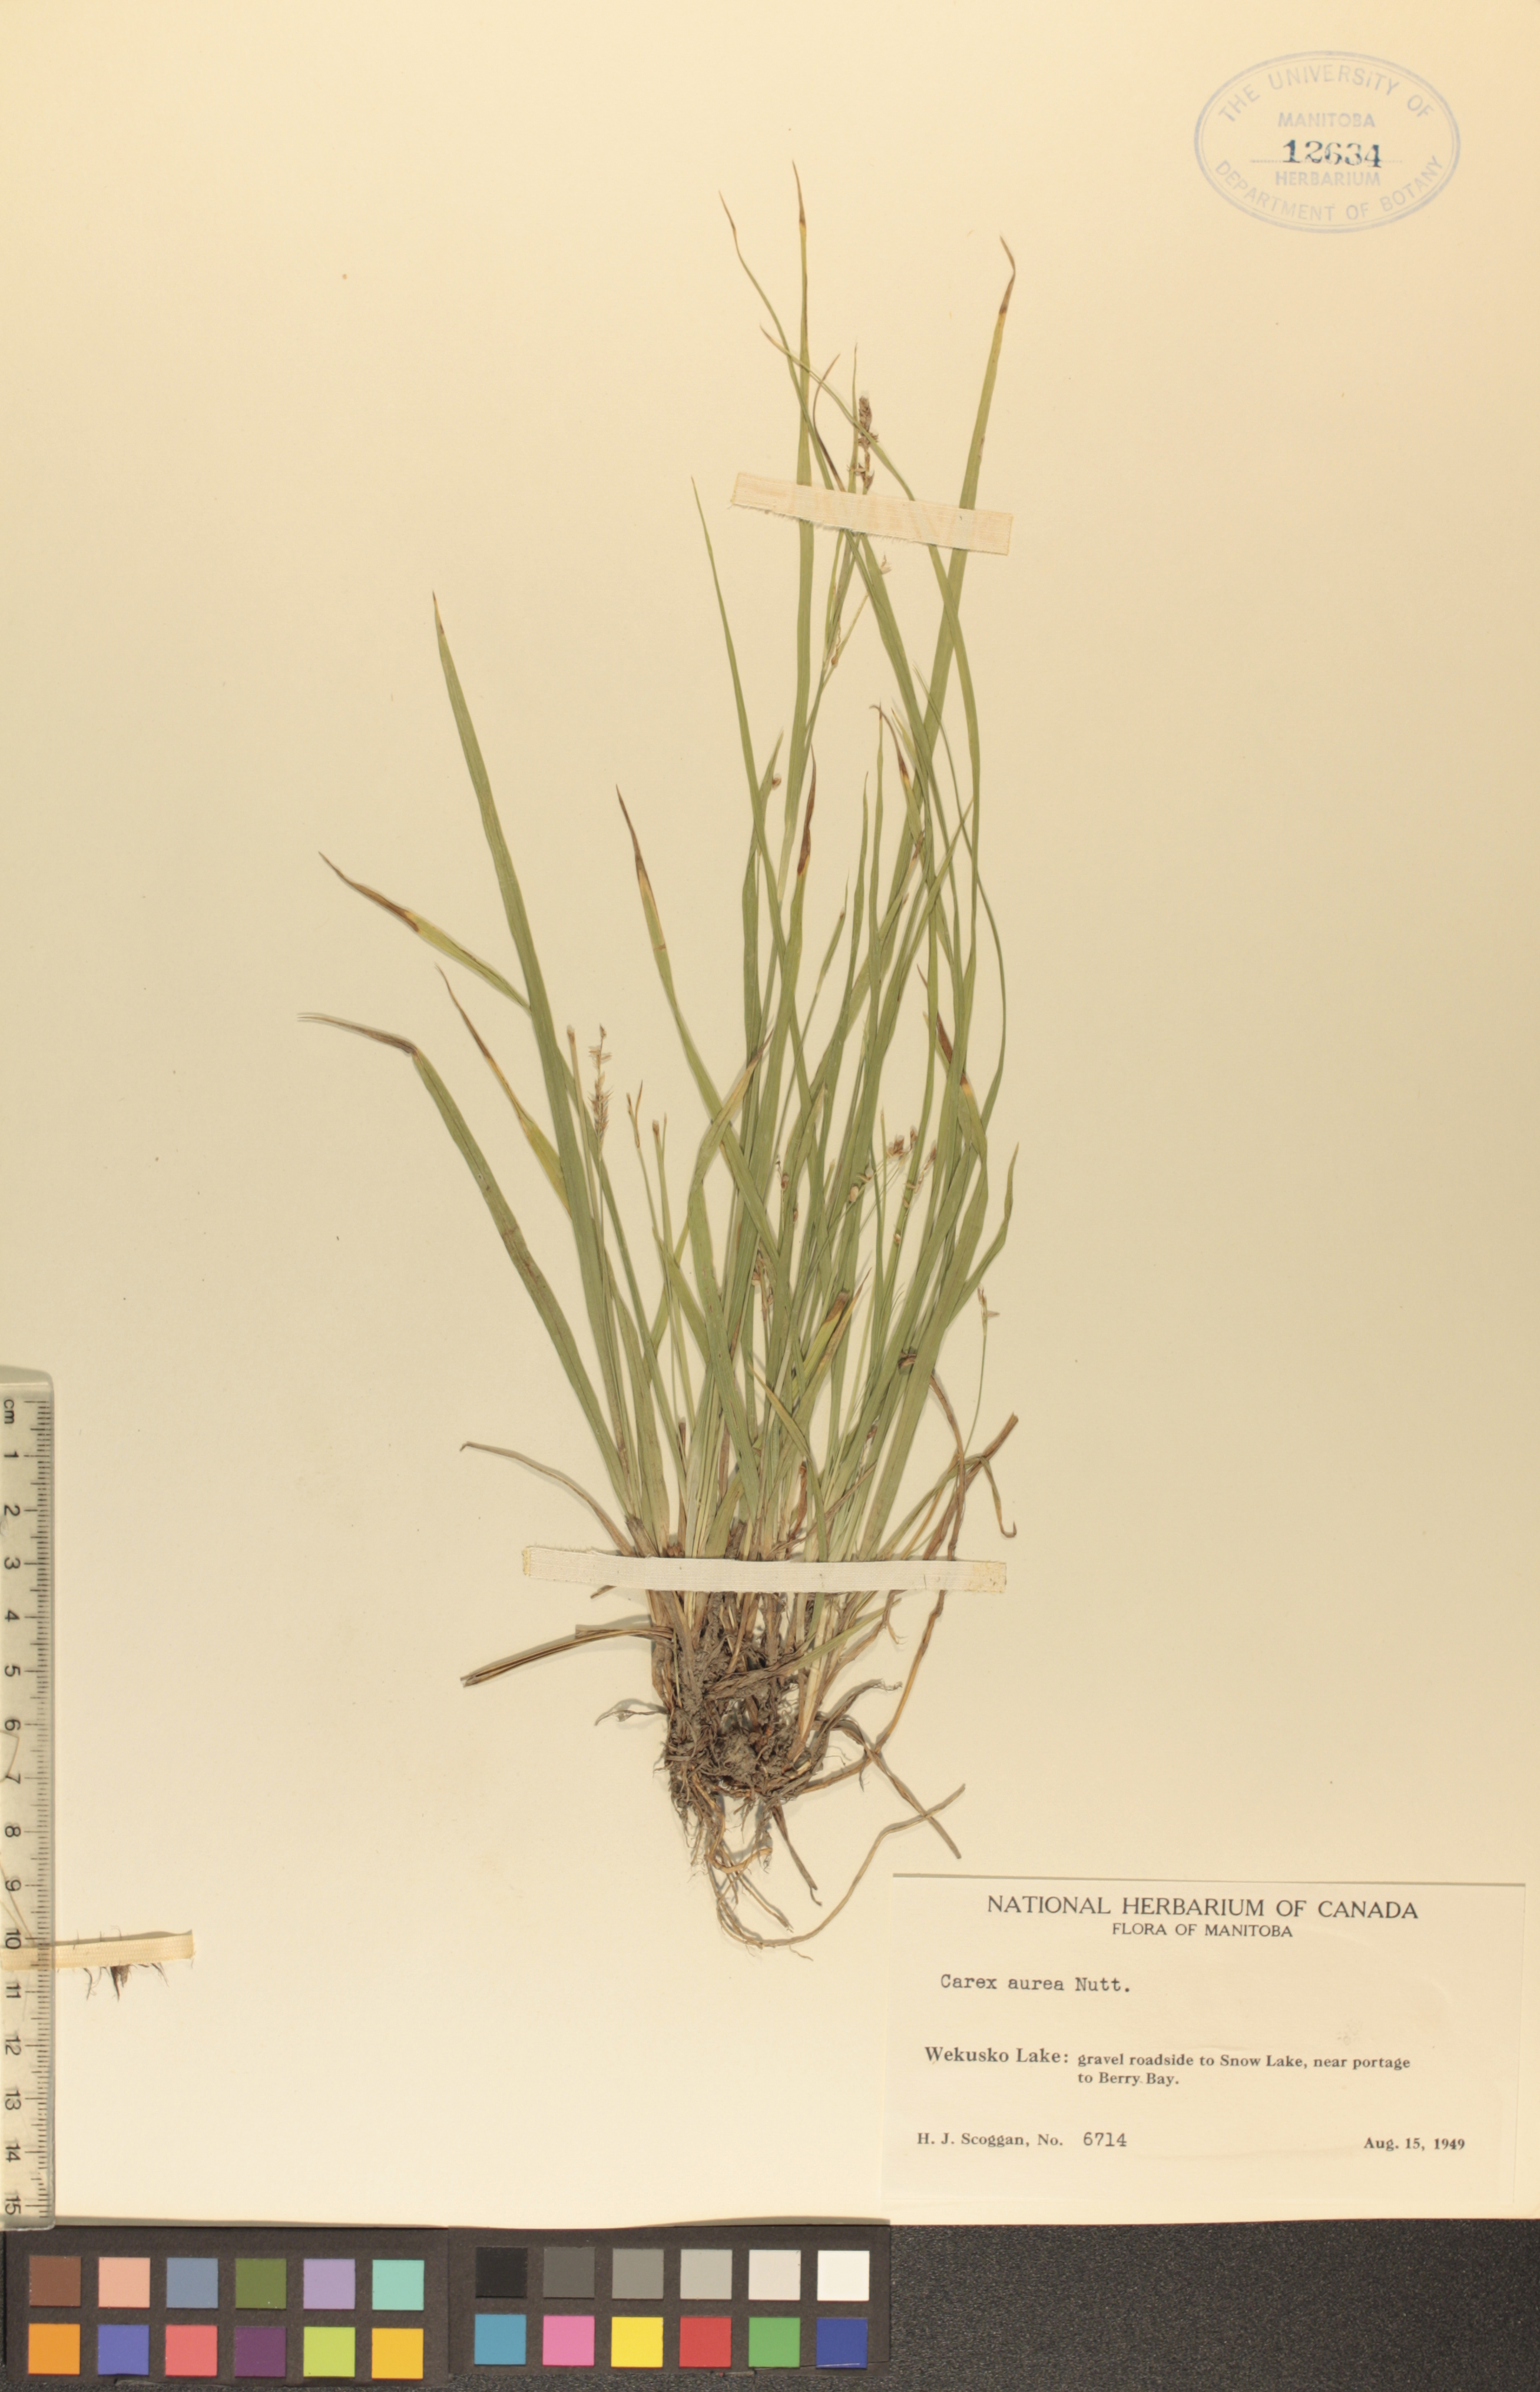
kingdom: Plantae
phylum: Tracheophyta
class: Liliopsida
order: Poales
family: Cyperaceae
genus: Carex
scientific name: Carex aurea
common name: Golden sedge
